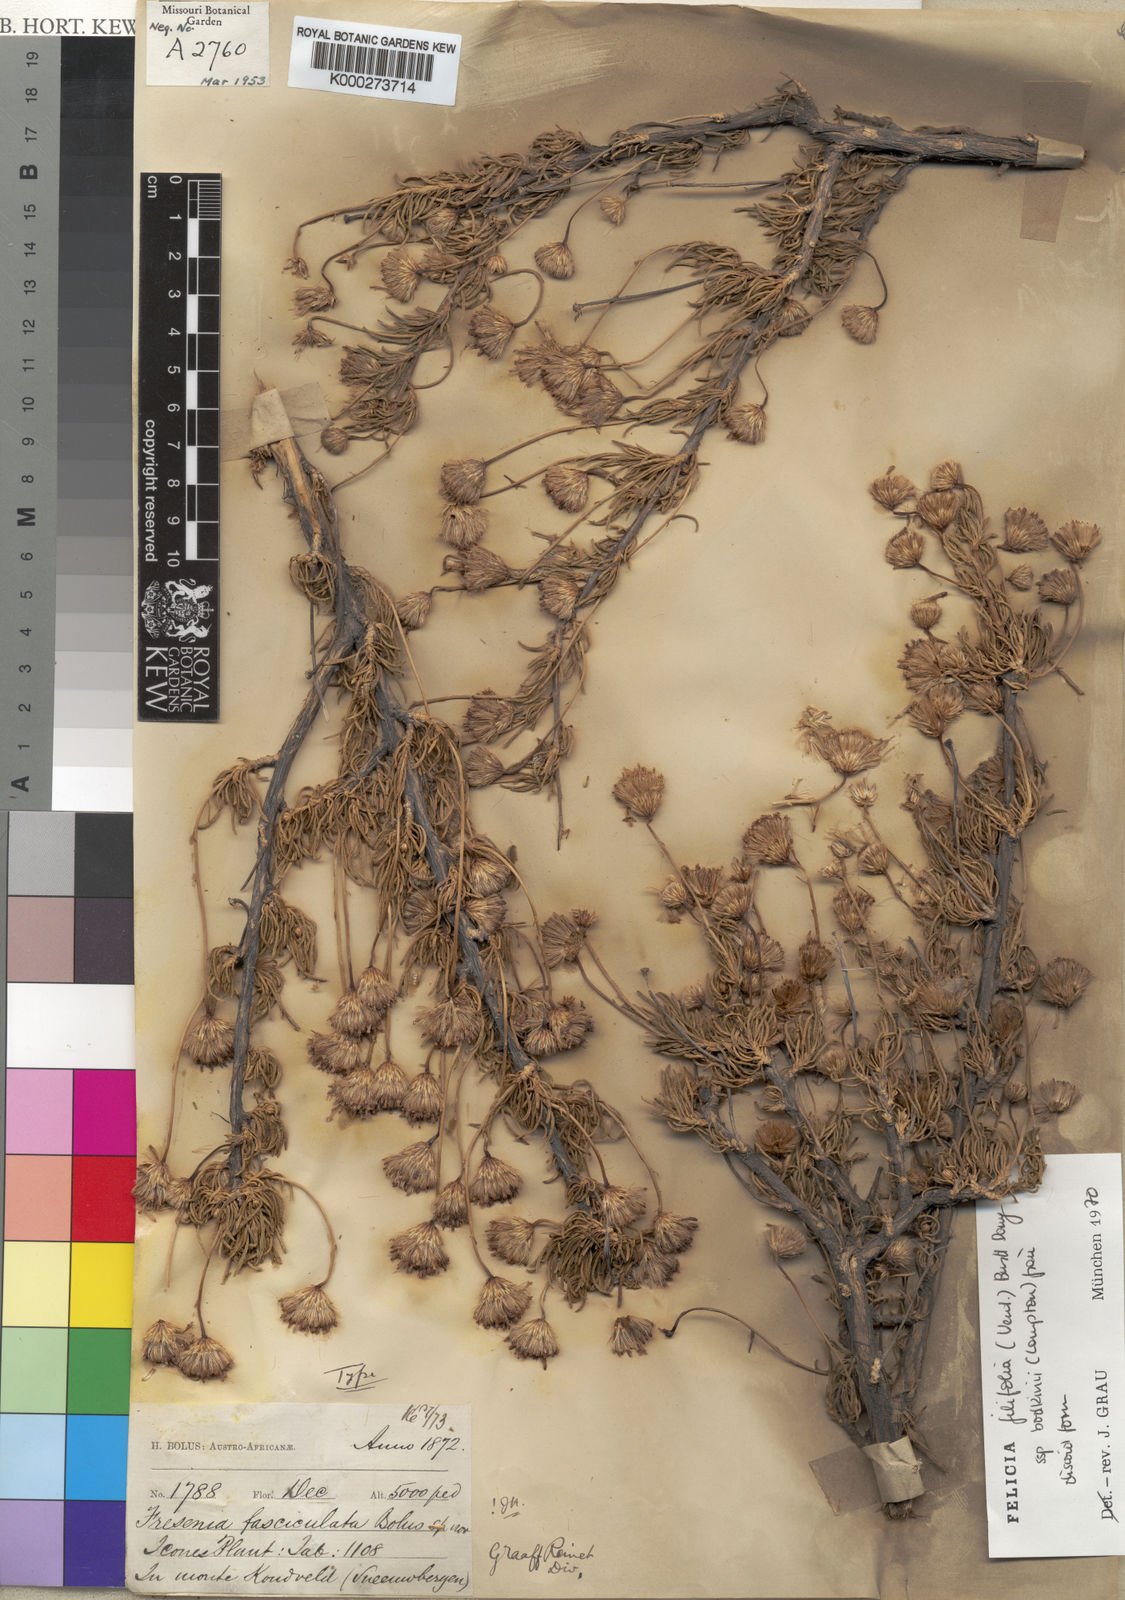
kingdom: Plantae
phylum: Tracheophyta
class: Magnoliopsida
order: Asterales
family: Asteraceae
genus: Felicia
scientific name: Felicia
